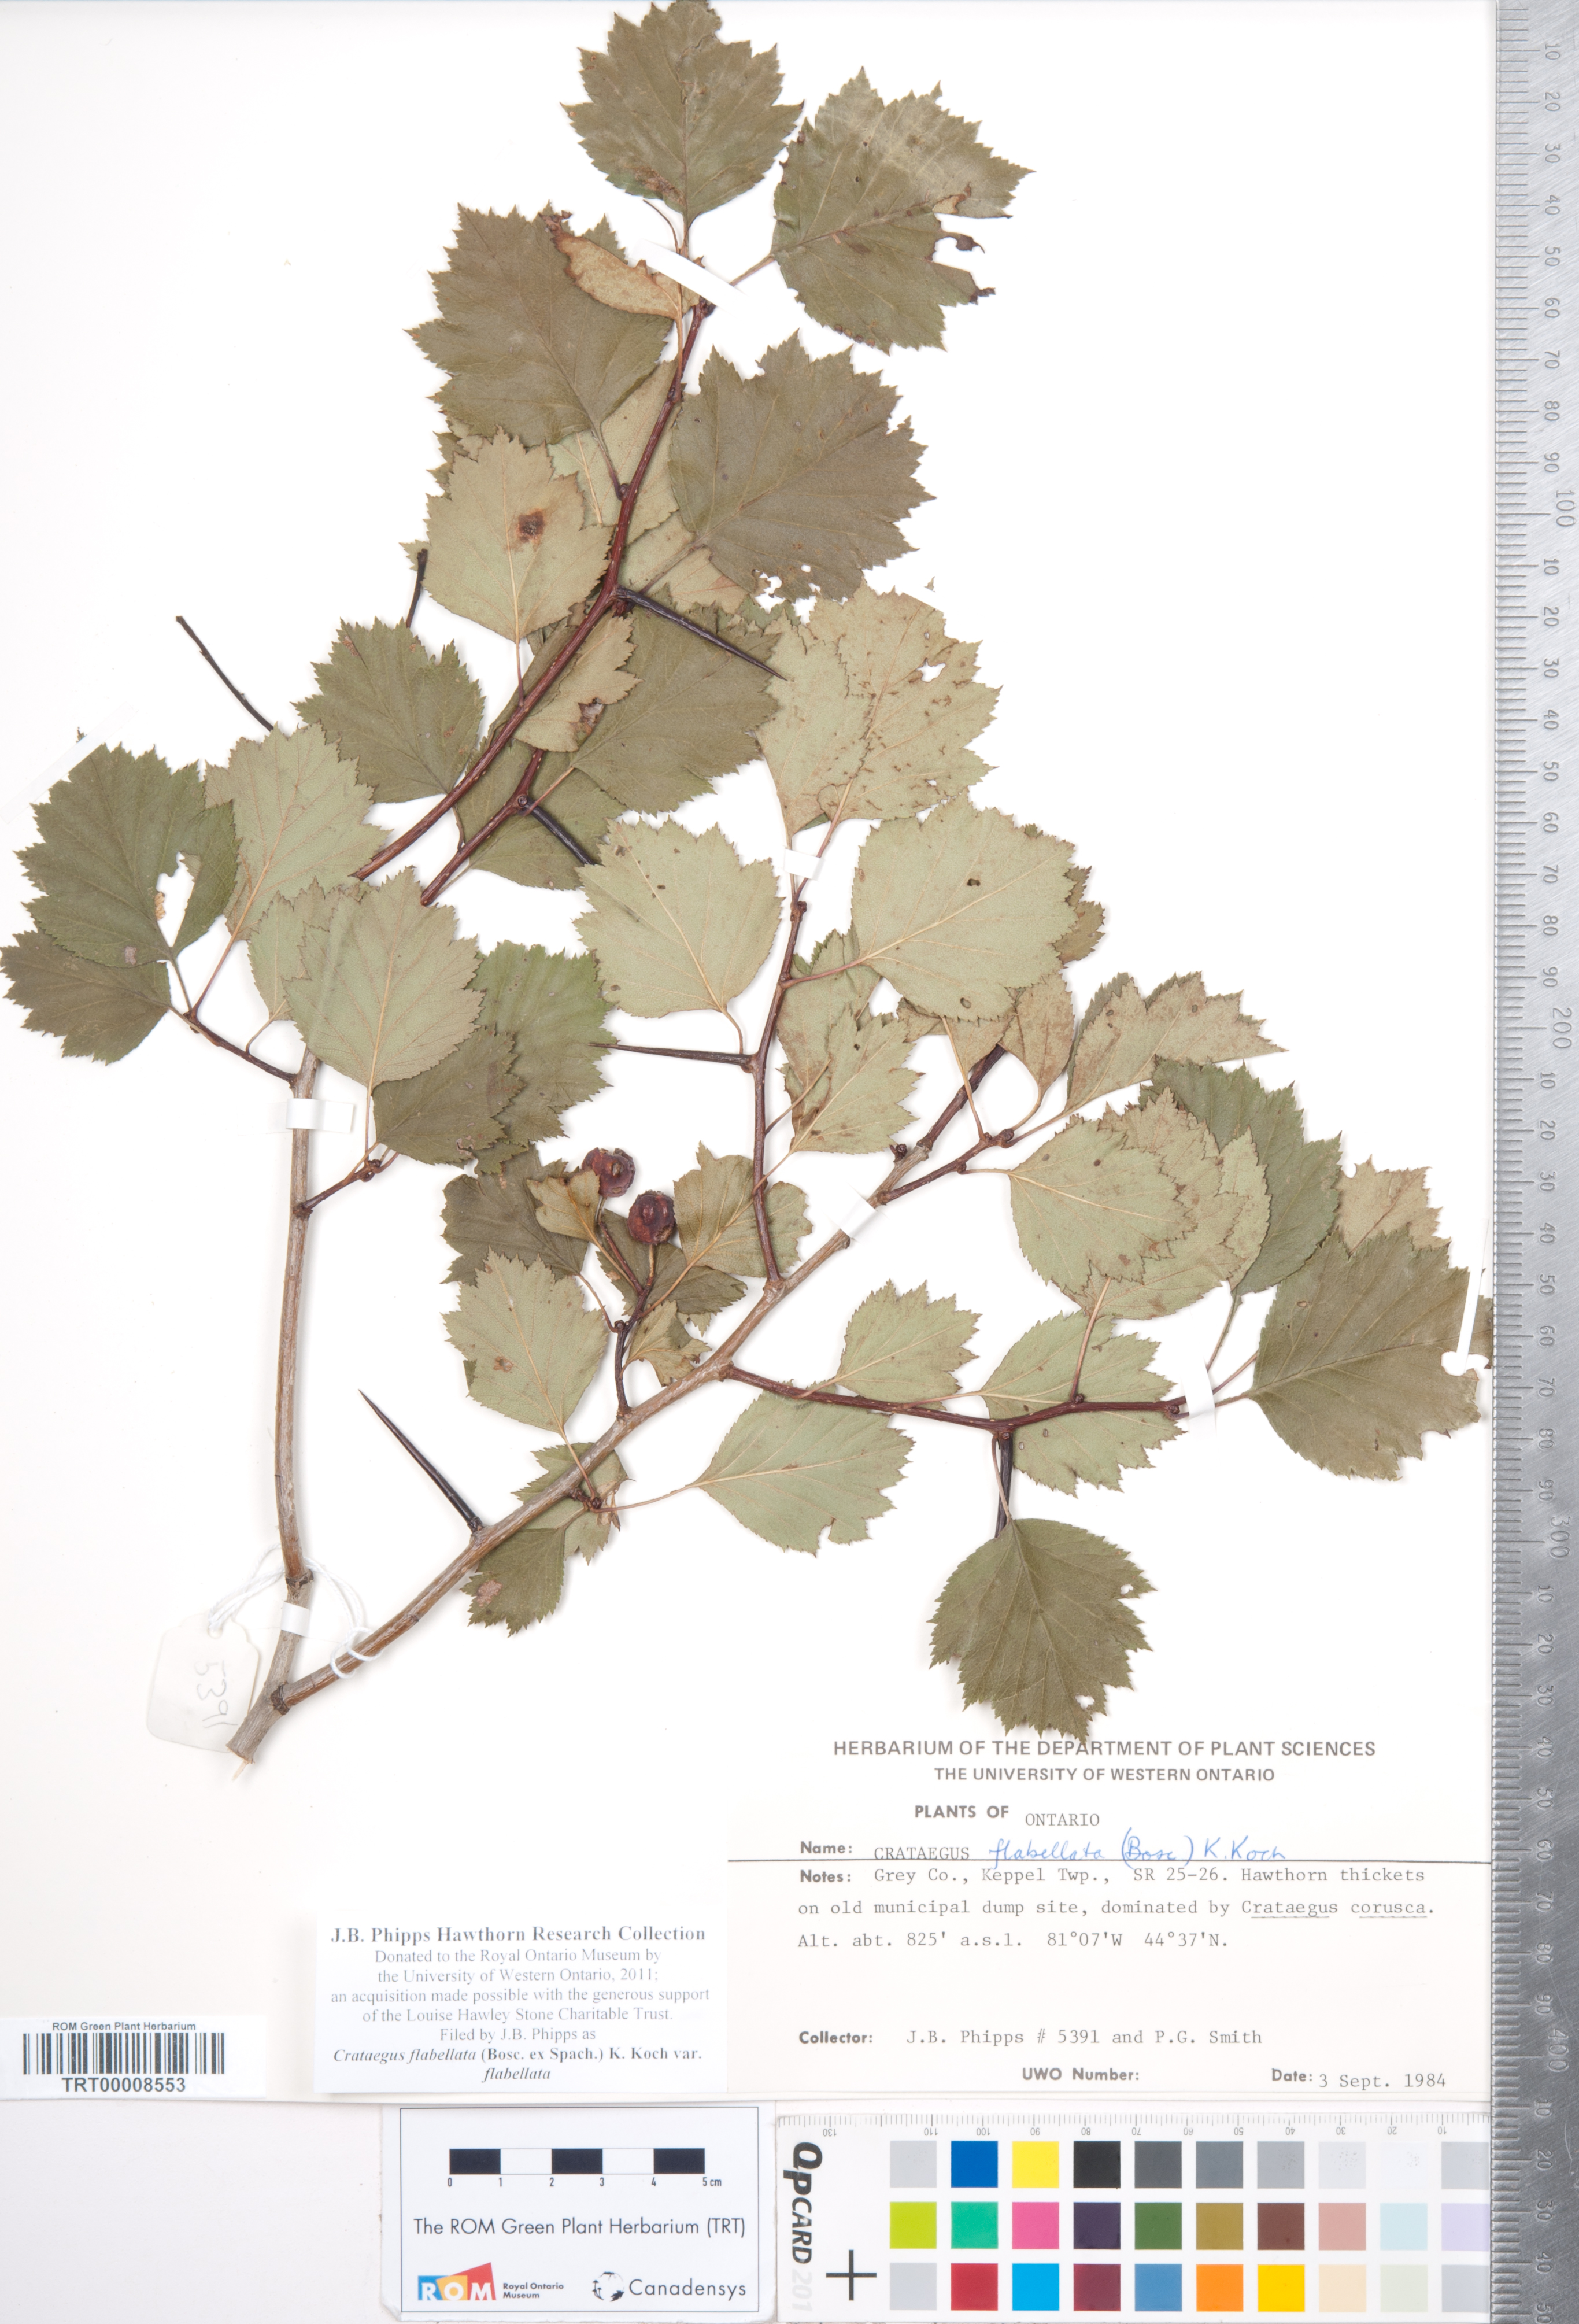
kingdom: Plantae
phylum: Tracheophyta
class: Magnoliopsida
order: Rosales
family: Rosaceae
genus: Crataegus
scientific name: Crataegus flabellata
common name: Bosc's hawthorn
